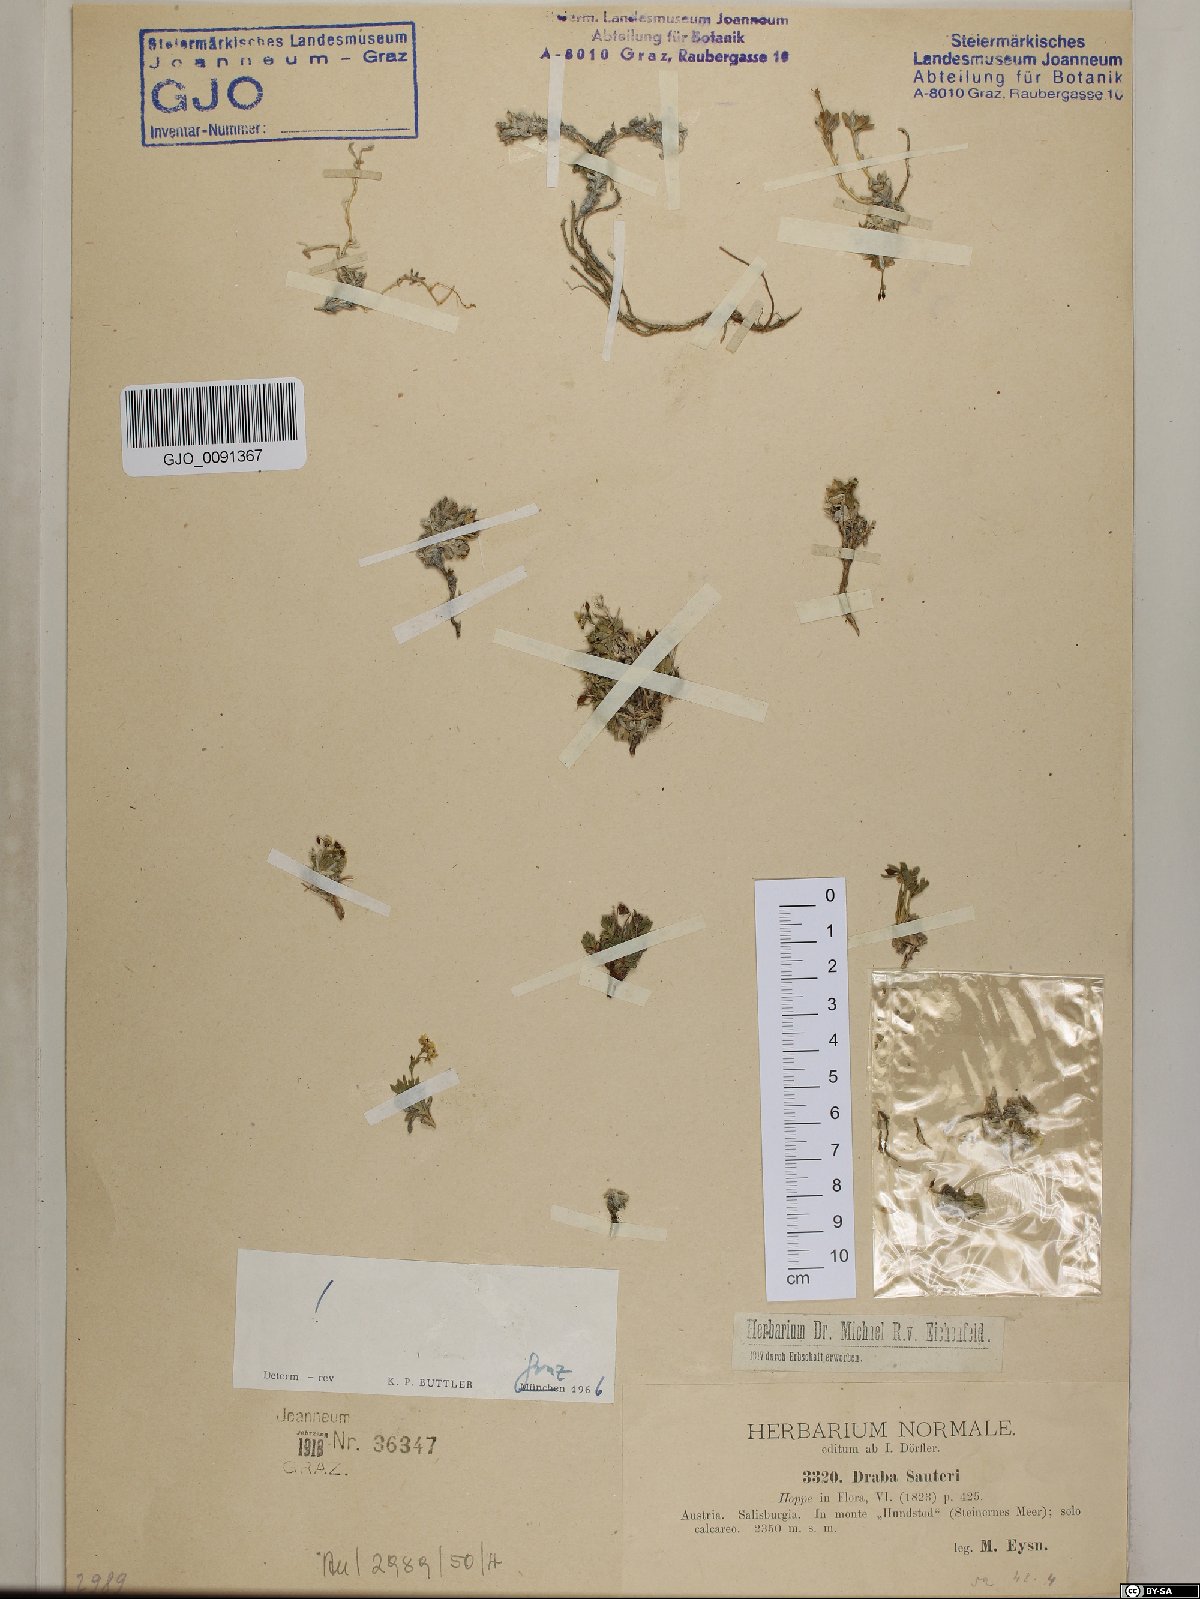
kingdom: Plantae
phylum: Tracheophyta
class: Magnoliopsida
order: Brassicales
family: Brassicaceae
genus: Draba
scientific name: Draba sauteri
